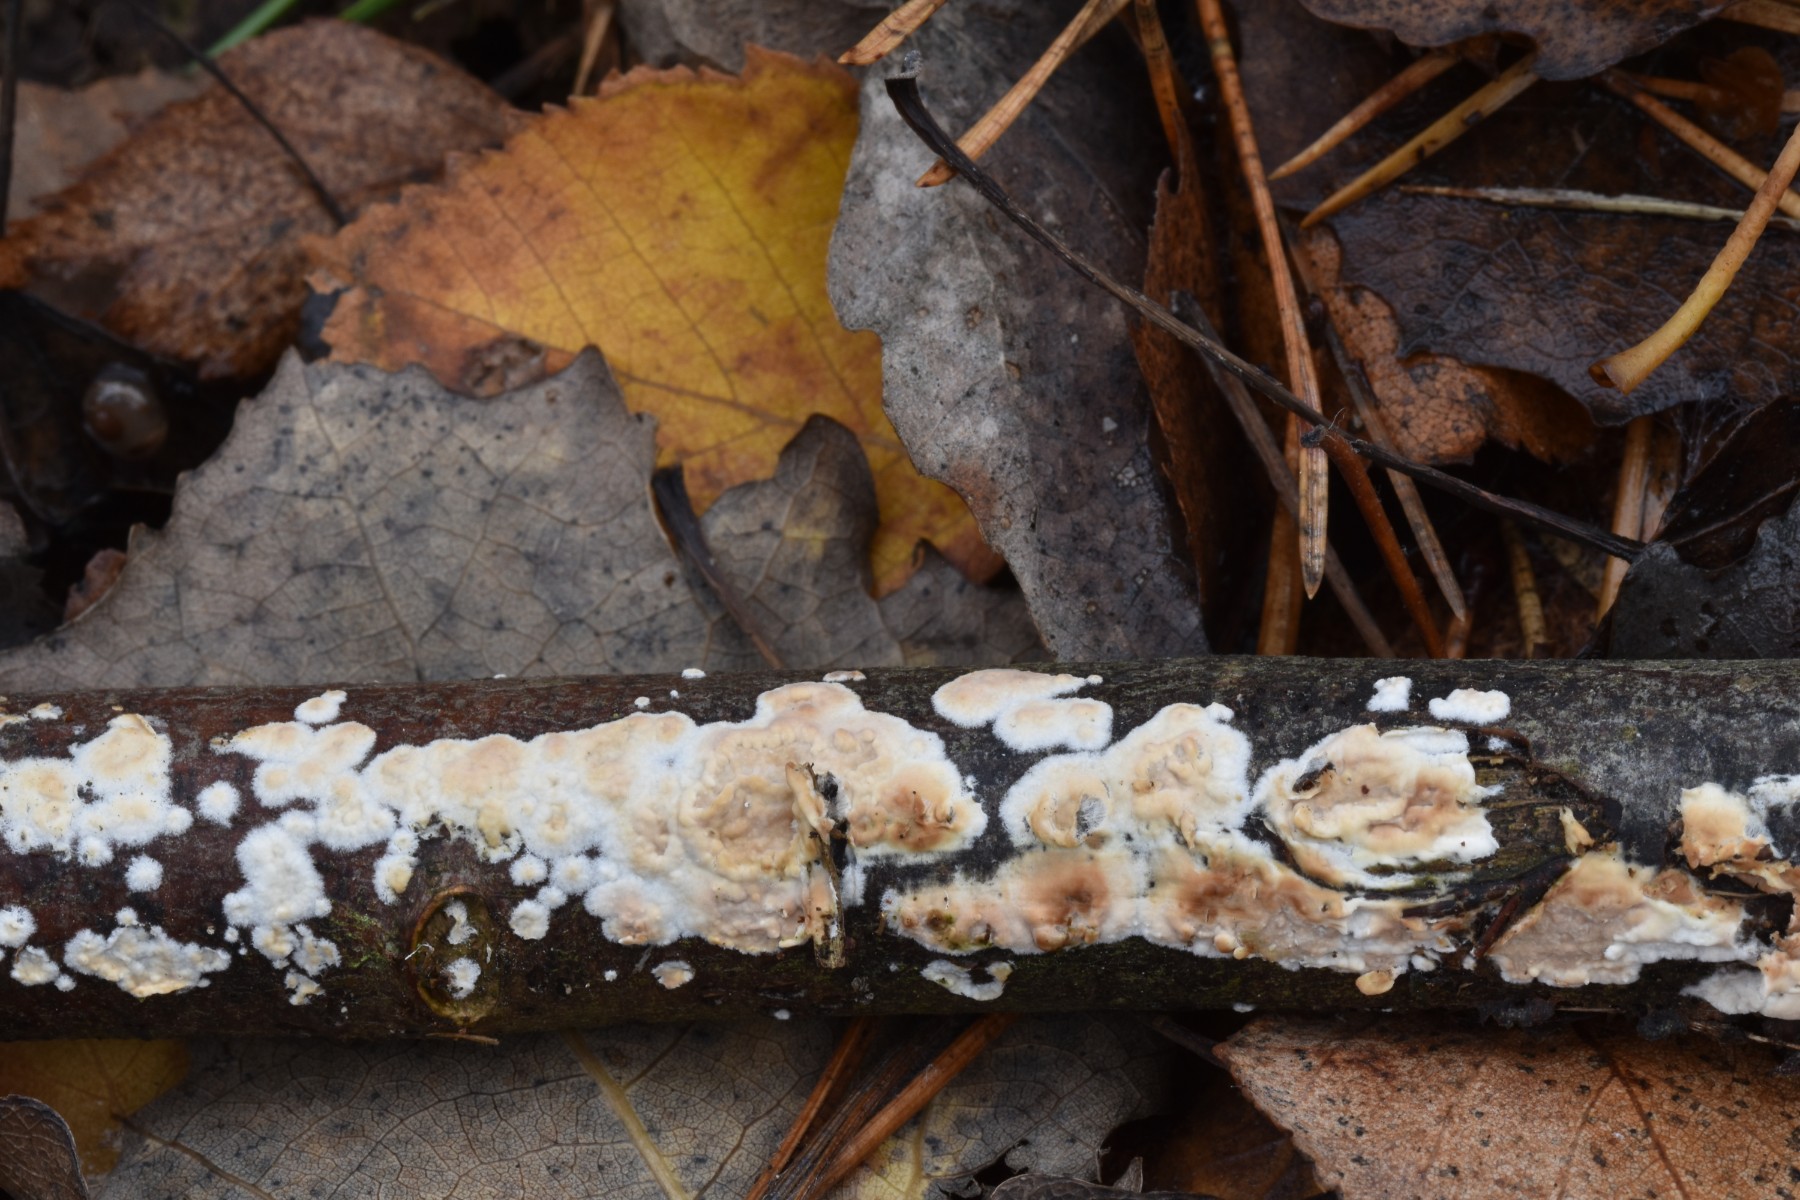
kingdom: Fungi
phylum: Basidiomycota
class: Agaricomycetes
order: Agaricales
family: Physalacriaceae
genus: Cylindrobasidium
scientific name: Cylindrobasidium evolvens
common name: sprækkehinde
